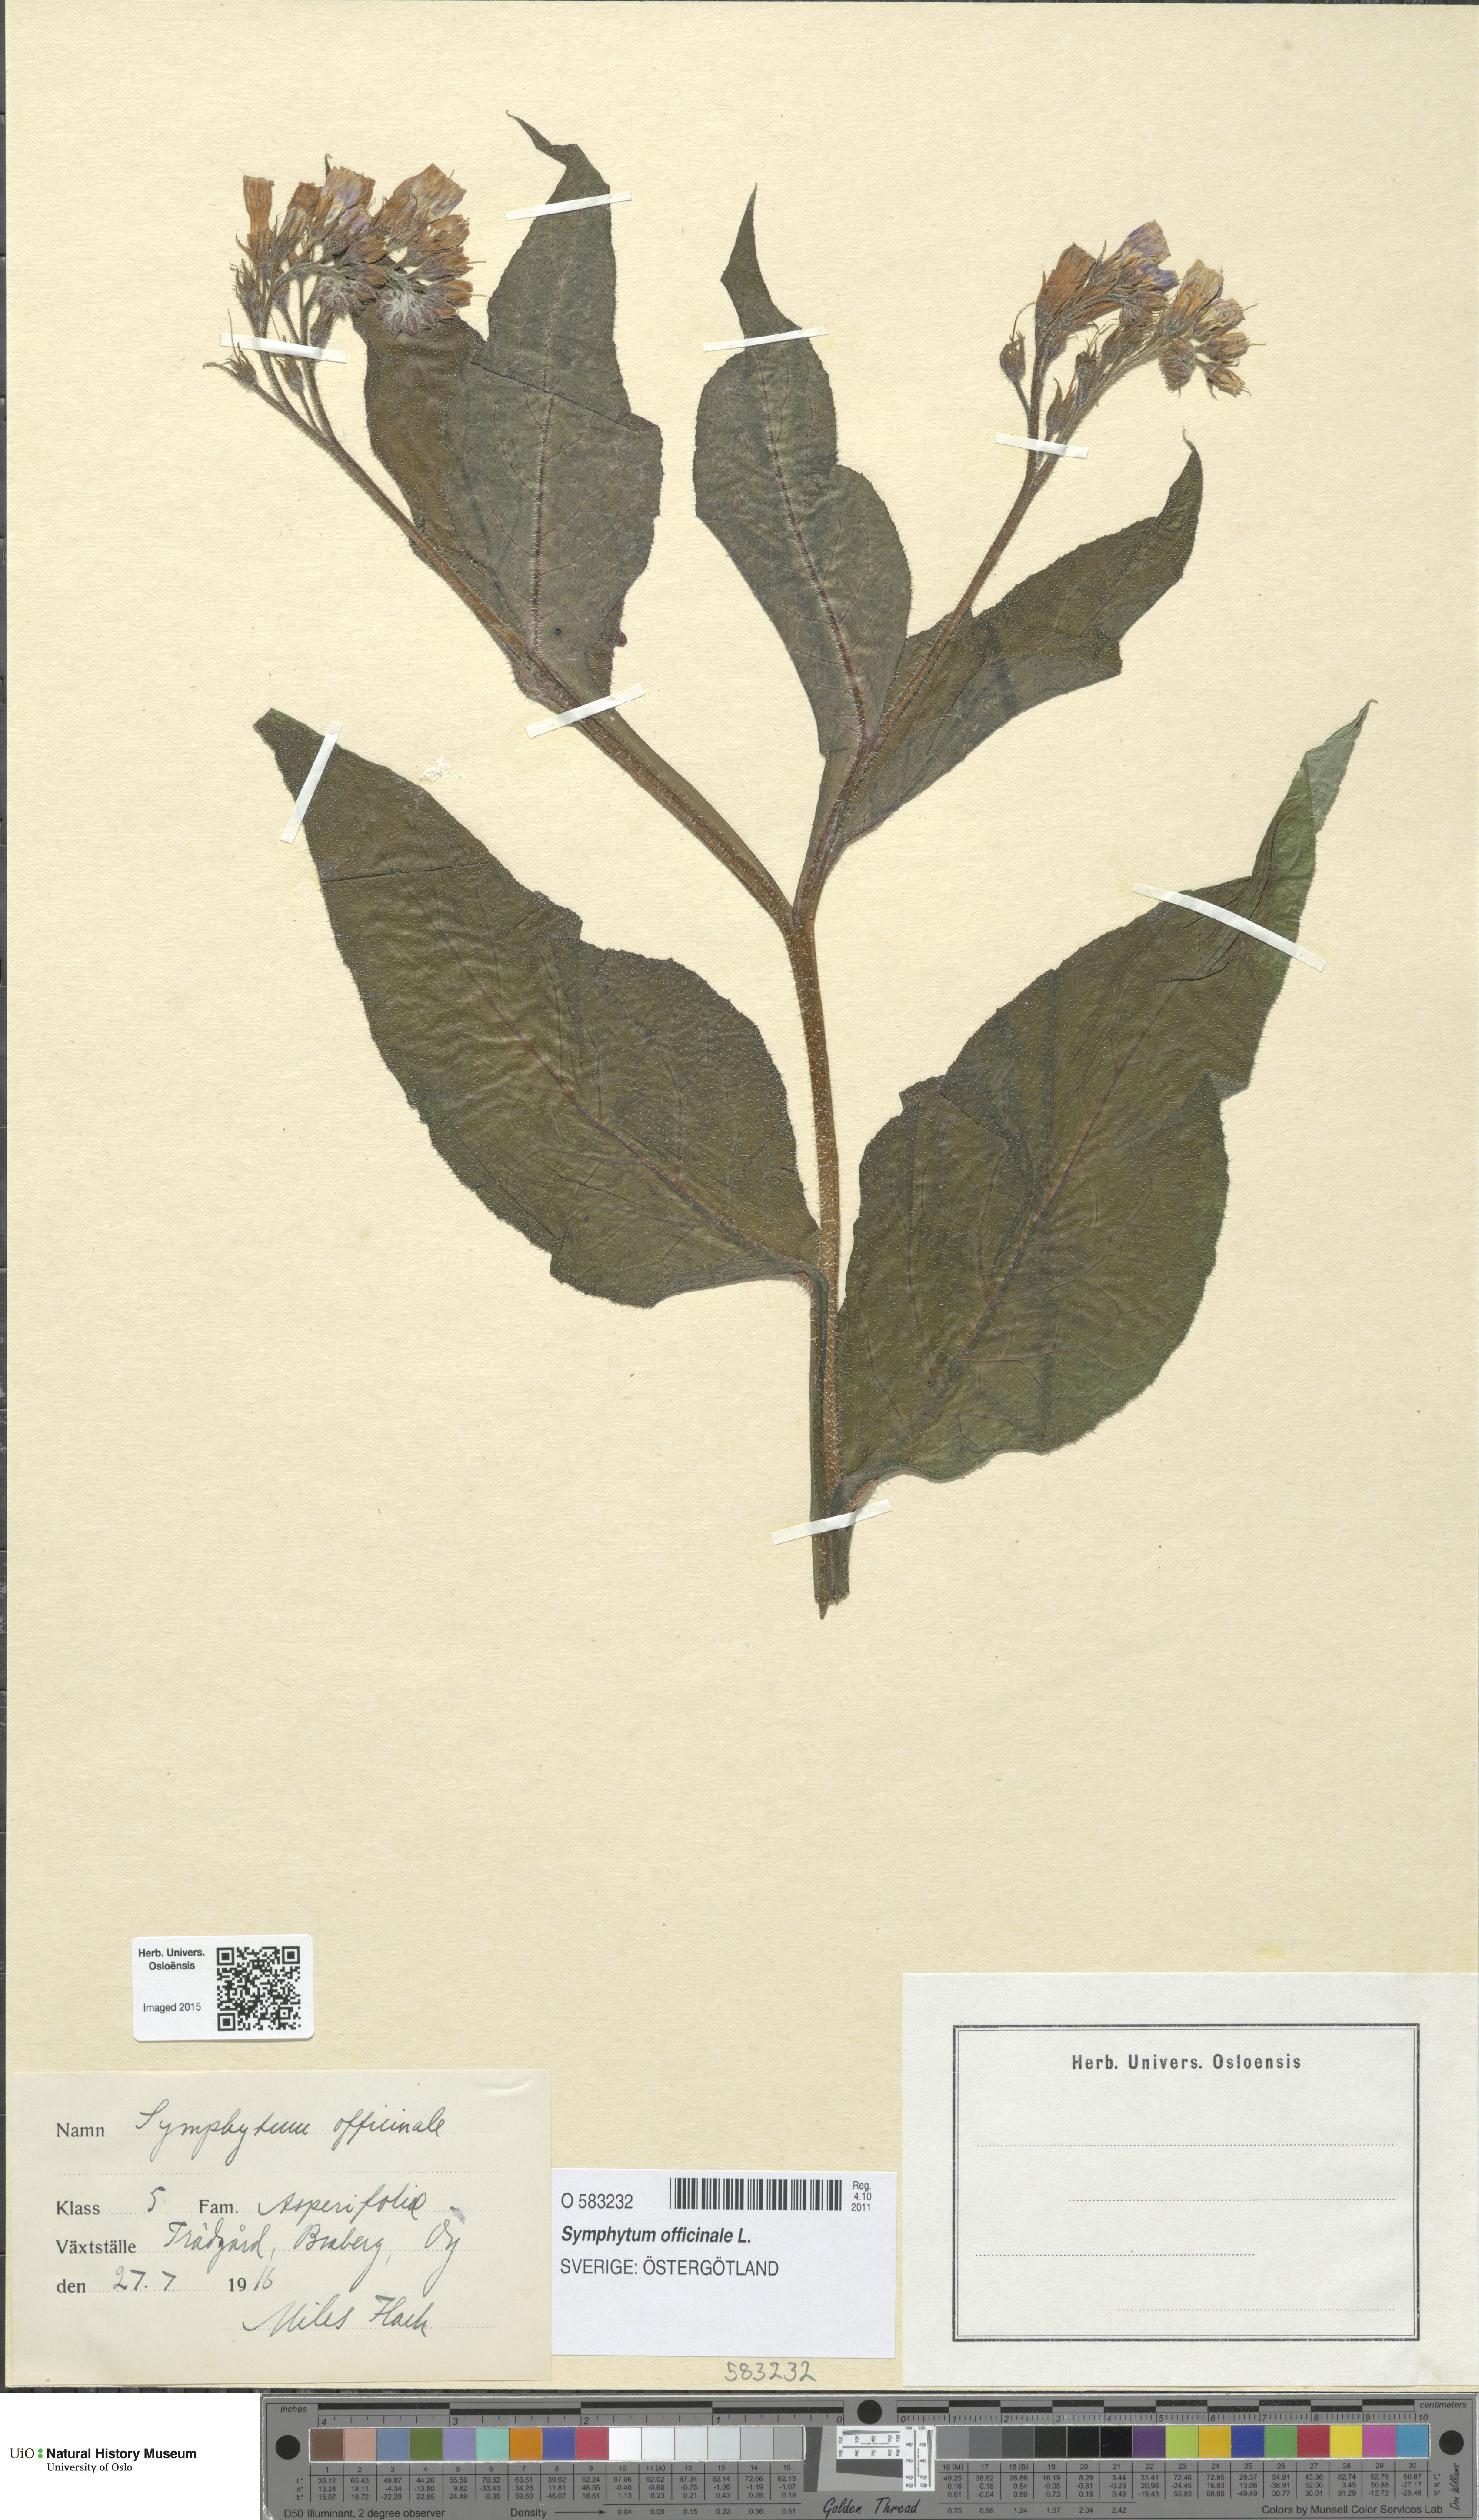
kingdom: Plantae
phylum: Tracheophyta
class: Magnoliopsida
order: Boraginales
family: Boraginaceae
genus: Symphytum
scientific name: Symphytum officinale
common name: Common comfrey
